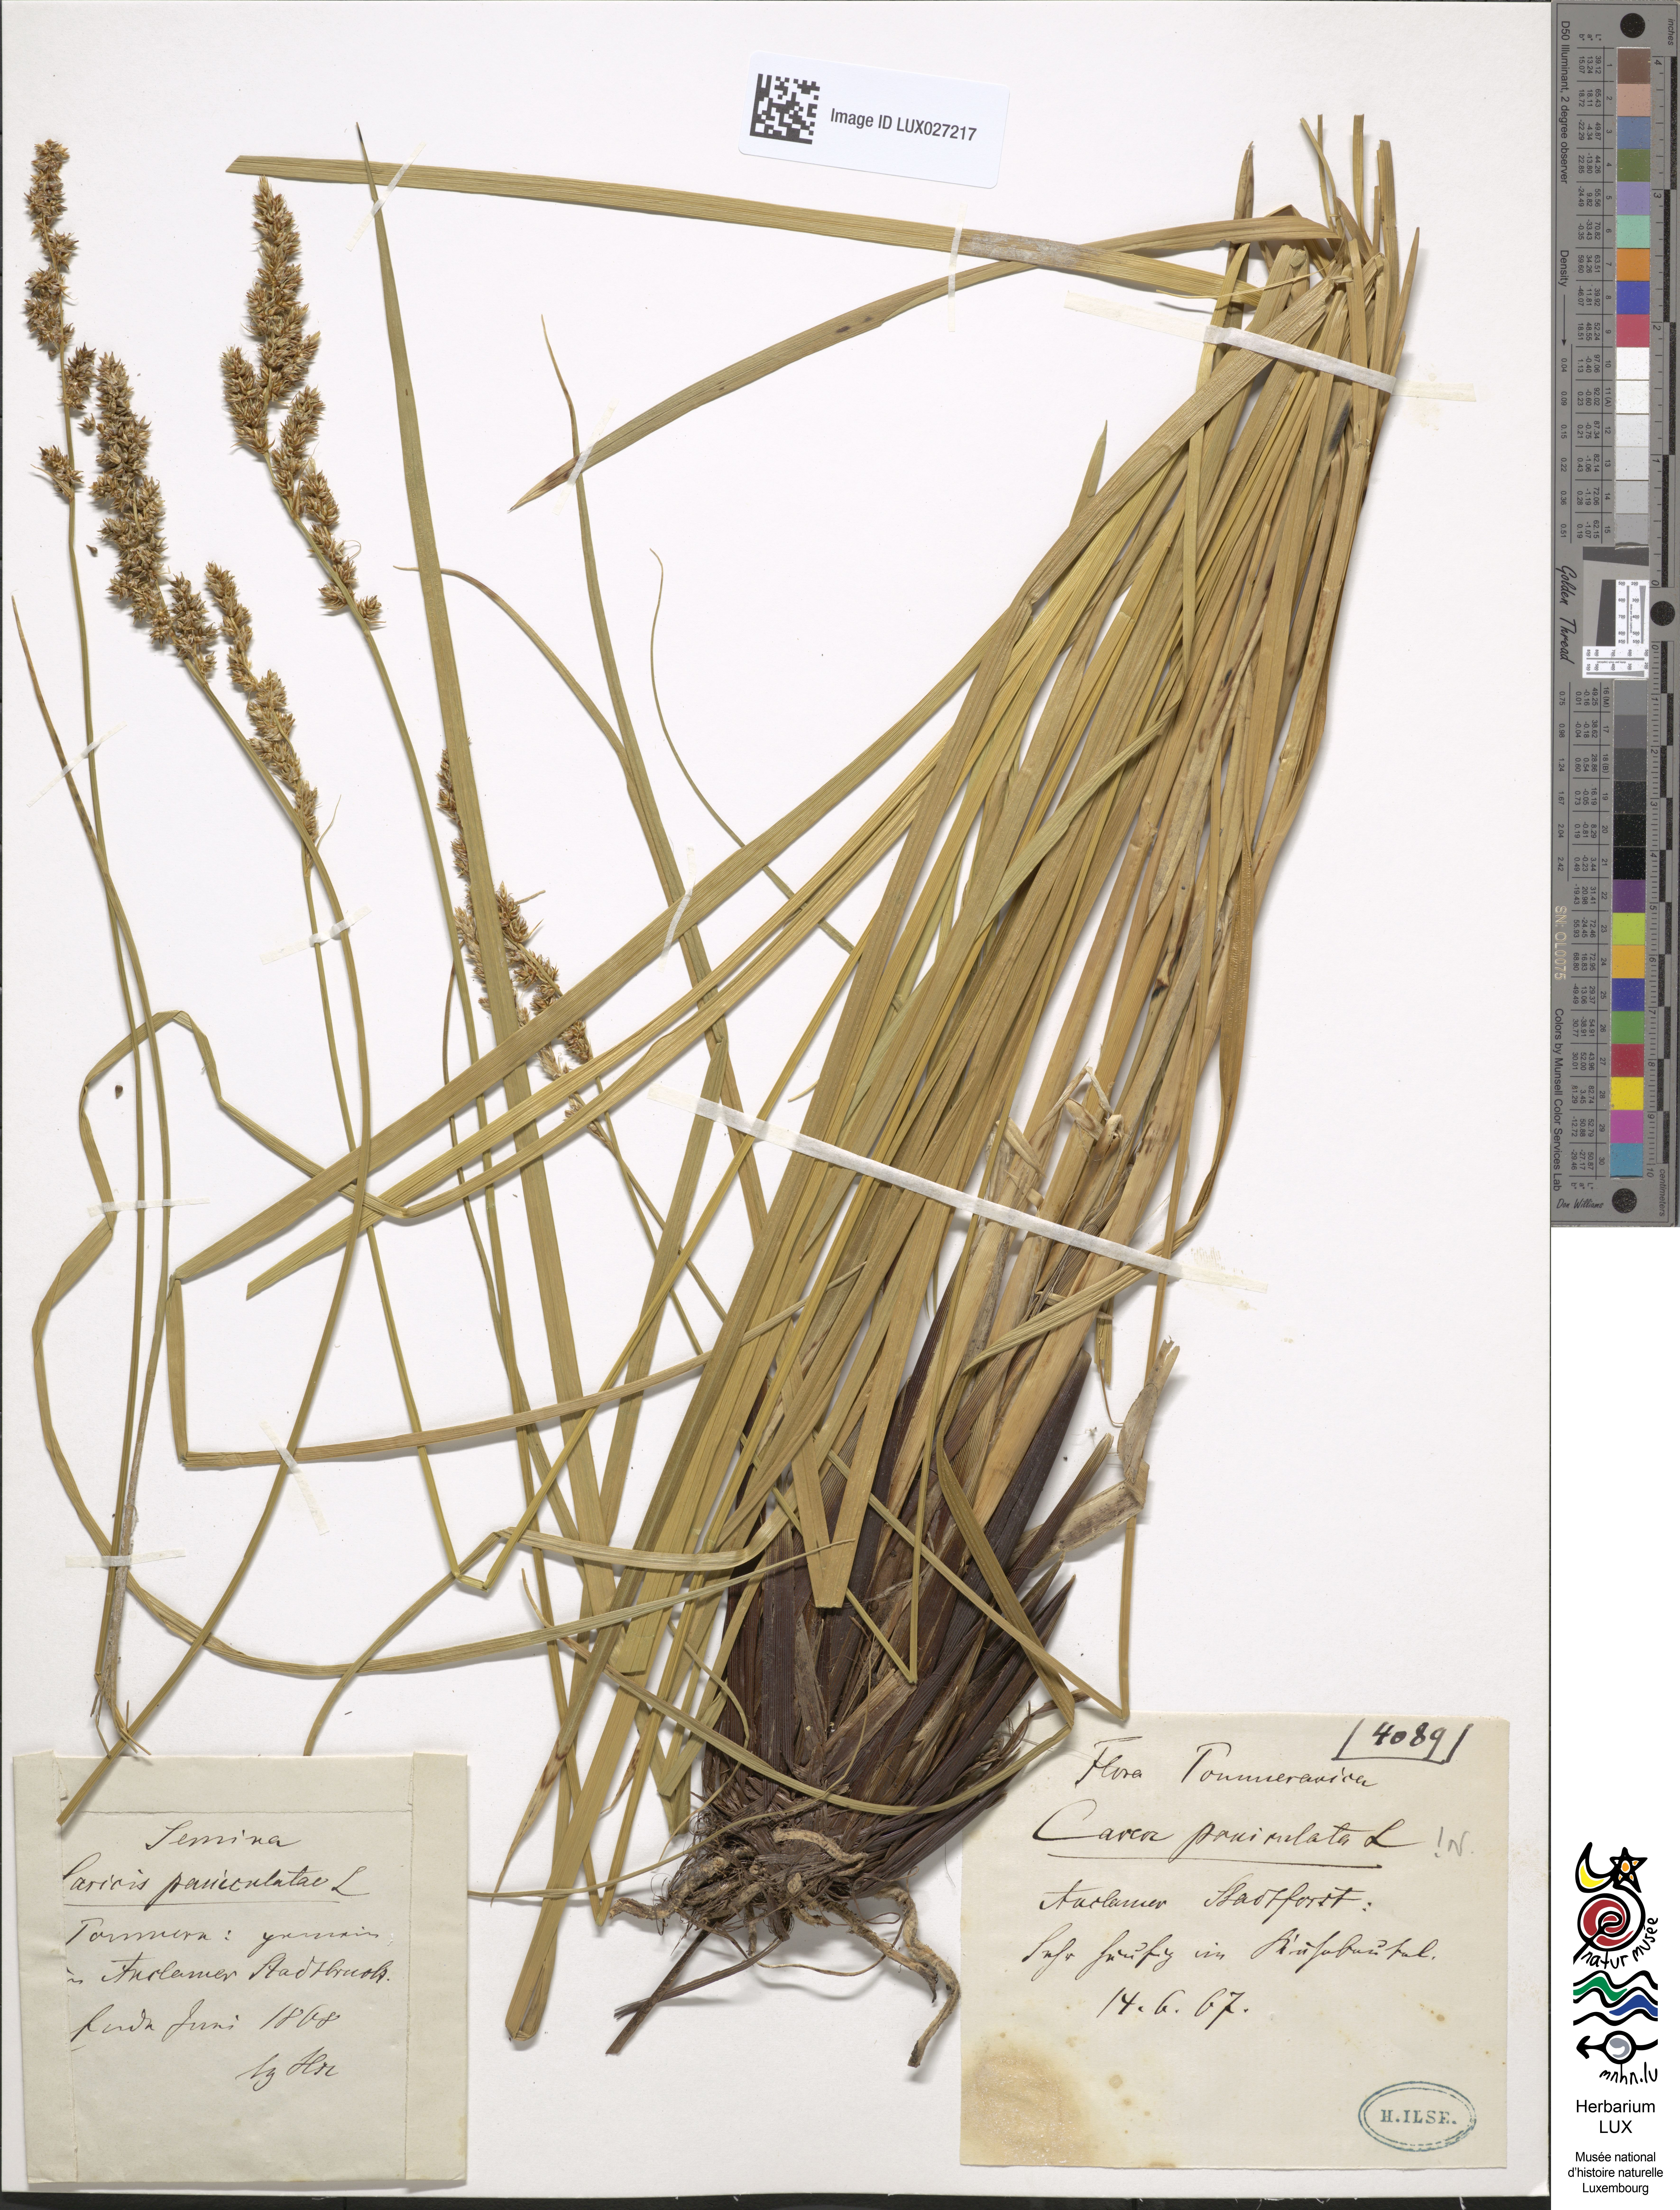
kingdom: Plantae
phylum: Tracheophyta
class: Liliopsida
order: Poales
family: Cyperaceae
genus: Carex
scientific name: Carex paniculata
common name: Greater tussock-sedge
